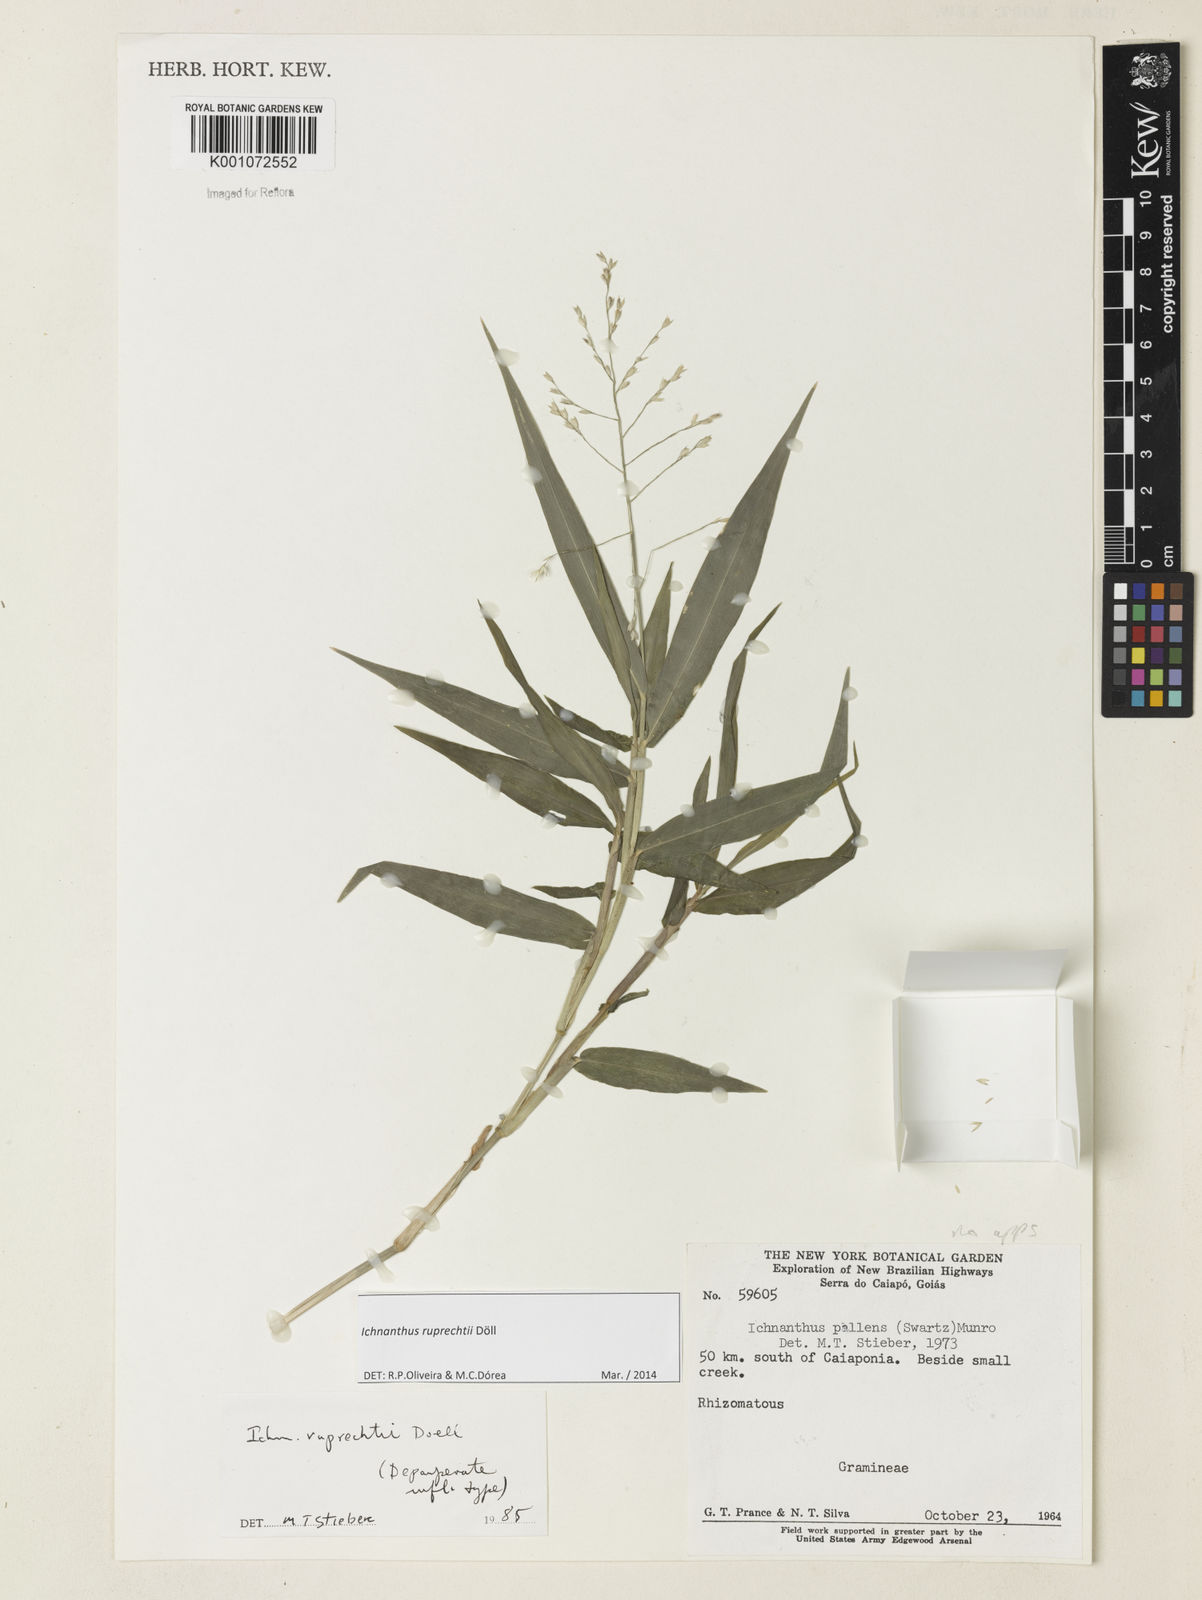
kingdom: Plantae
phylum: Tracheophyta
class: Liliopsida
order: Poales
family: Poaceae
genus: Ichnanthus
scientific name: Ichnanthus
